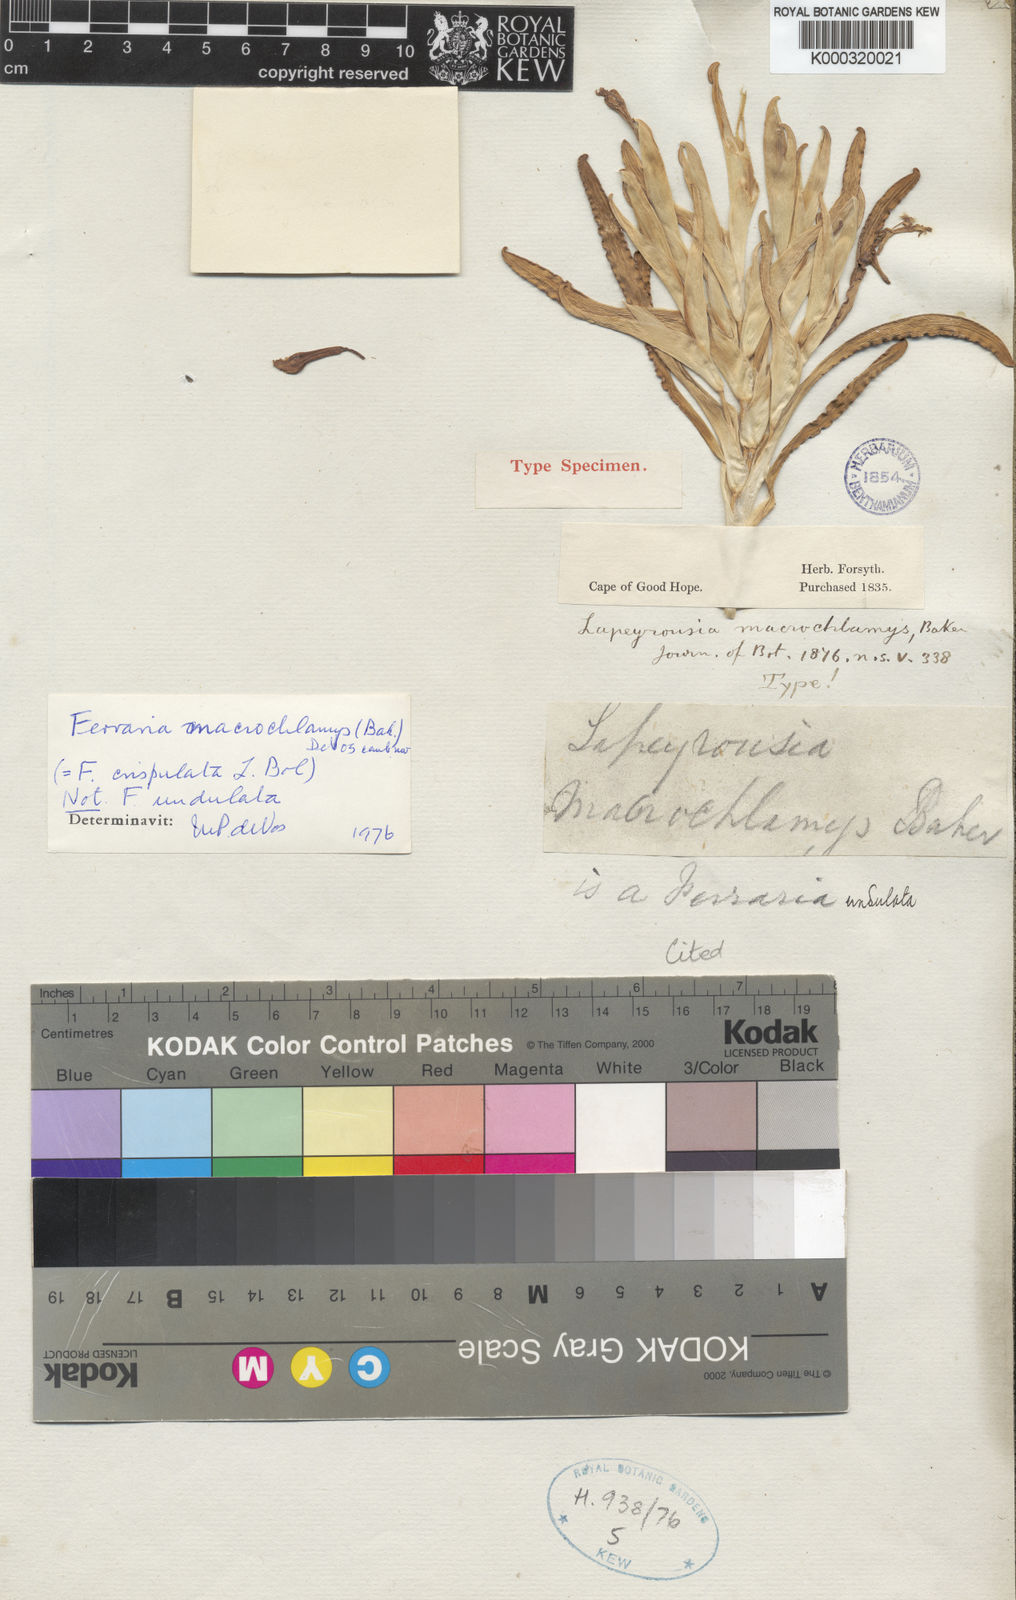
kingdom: Plantae
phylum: Tracheophyta
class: Liliopsida
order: Asparagales
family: Iridaceae
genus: Ferraria
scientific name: Ferraria macrochlamys
